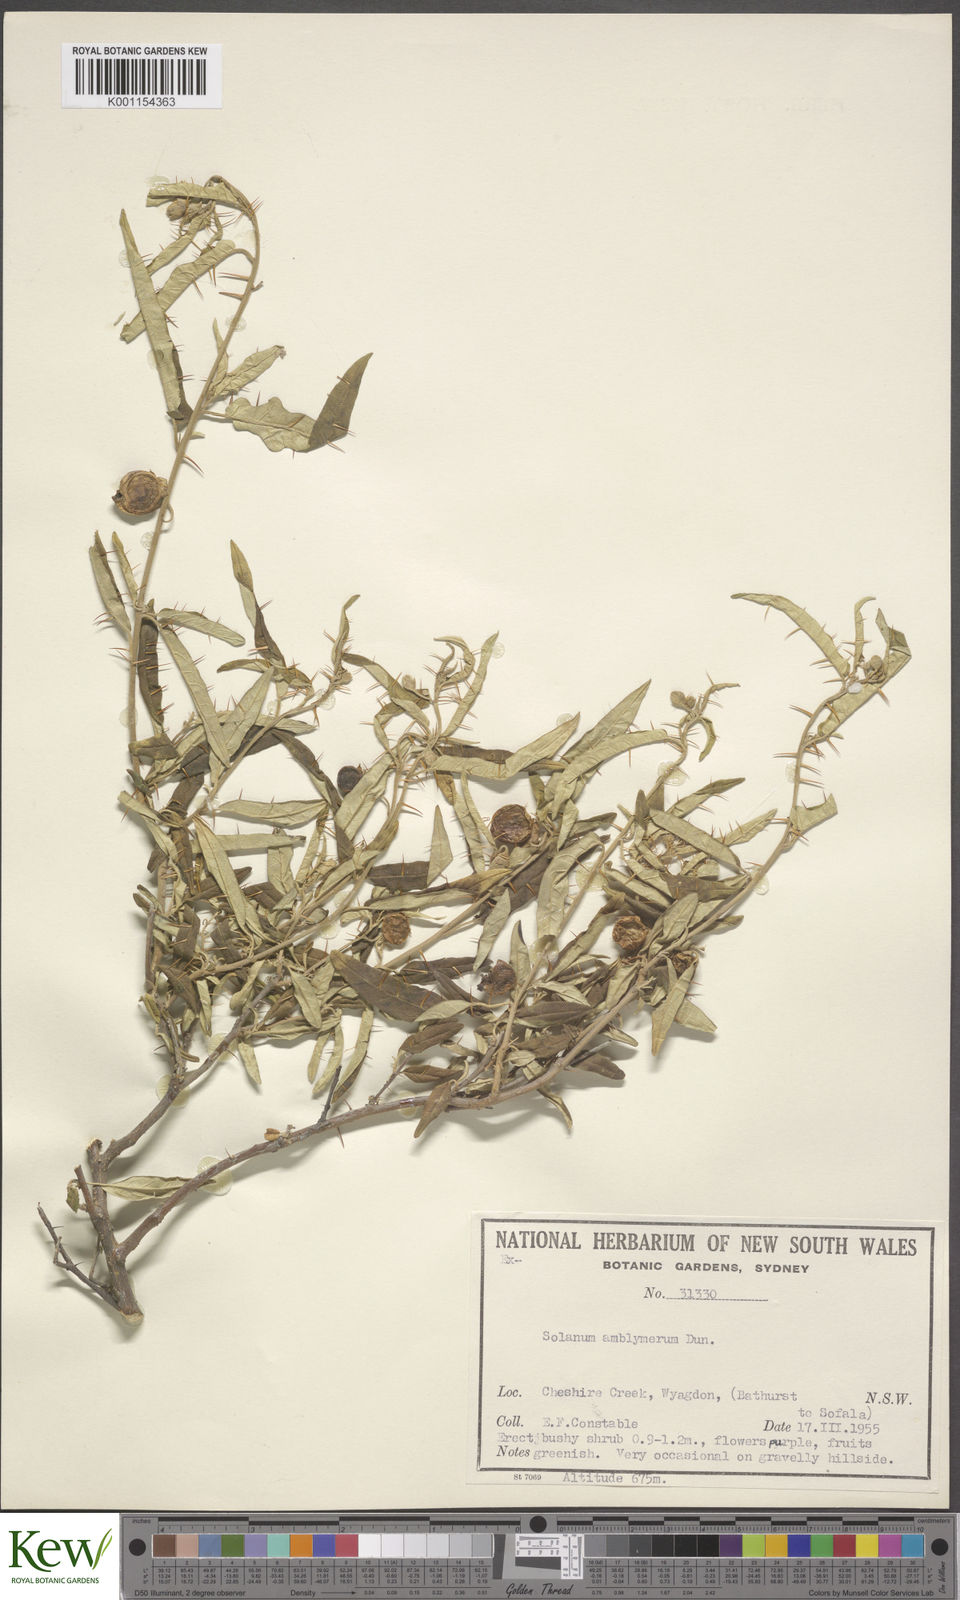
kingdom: Plantae
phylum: Tracheophyta
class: Magnoliopsida
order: Solanales
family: Solanaceae
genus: Solanum
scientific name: Solanum elegans
